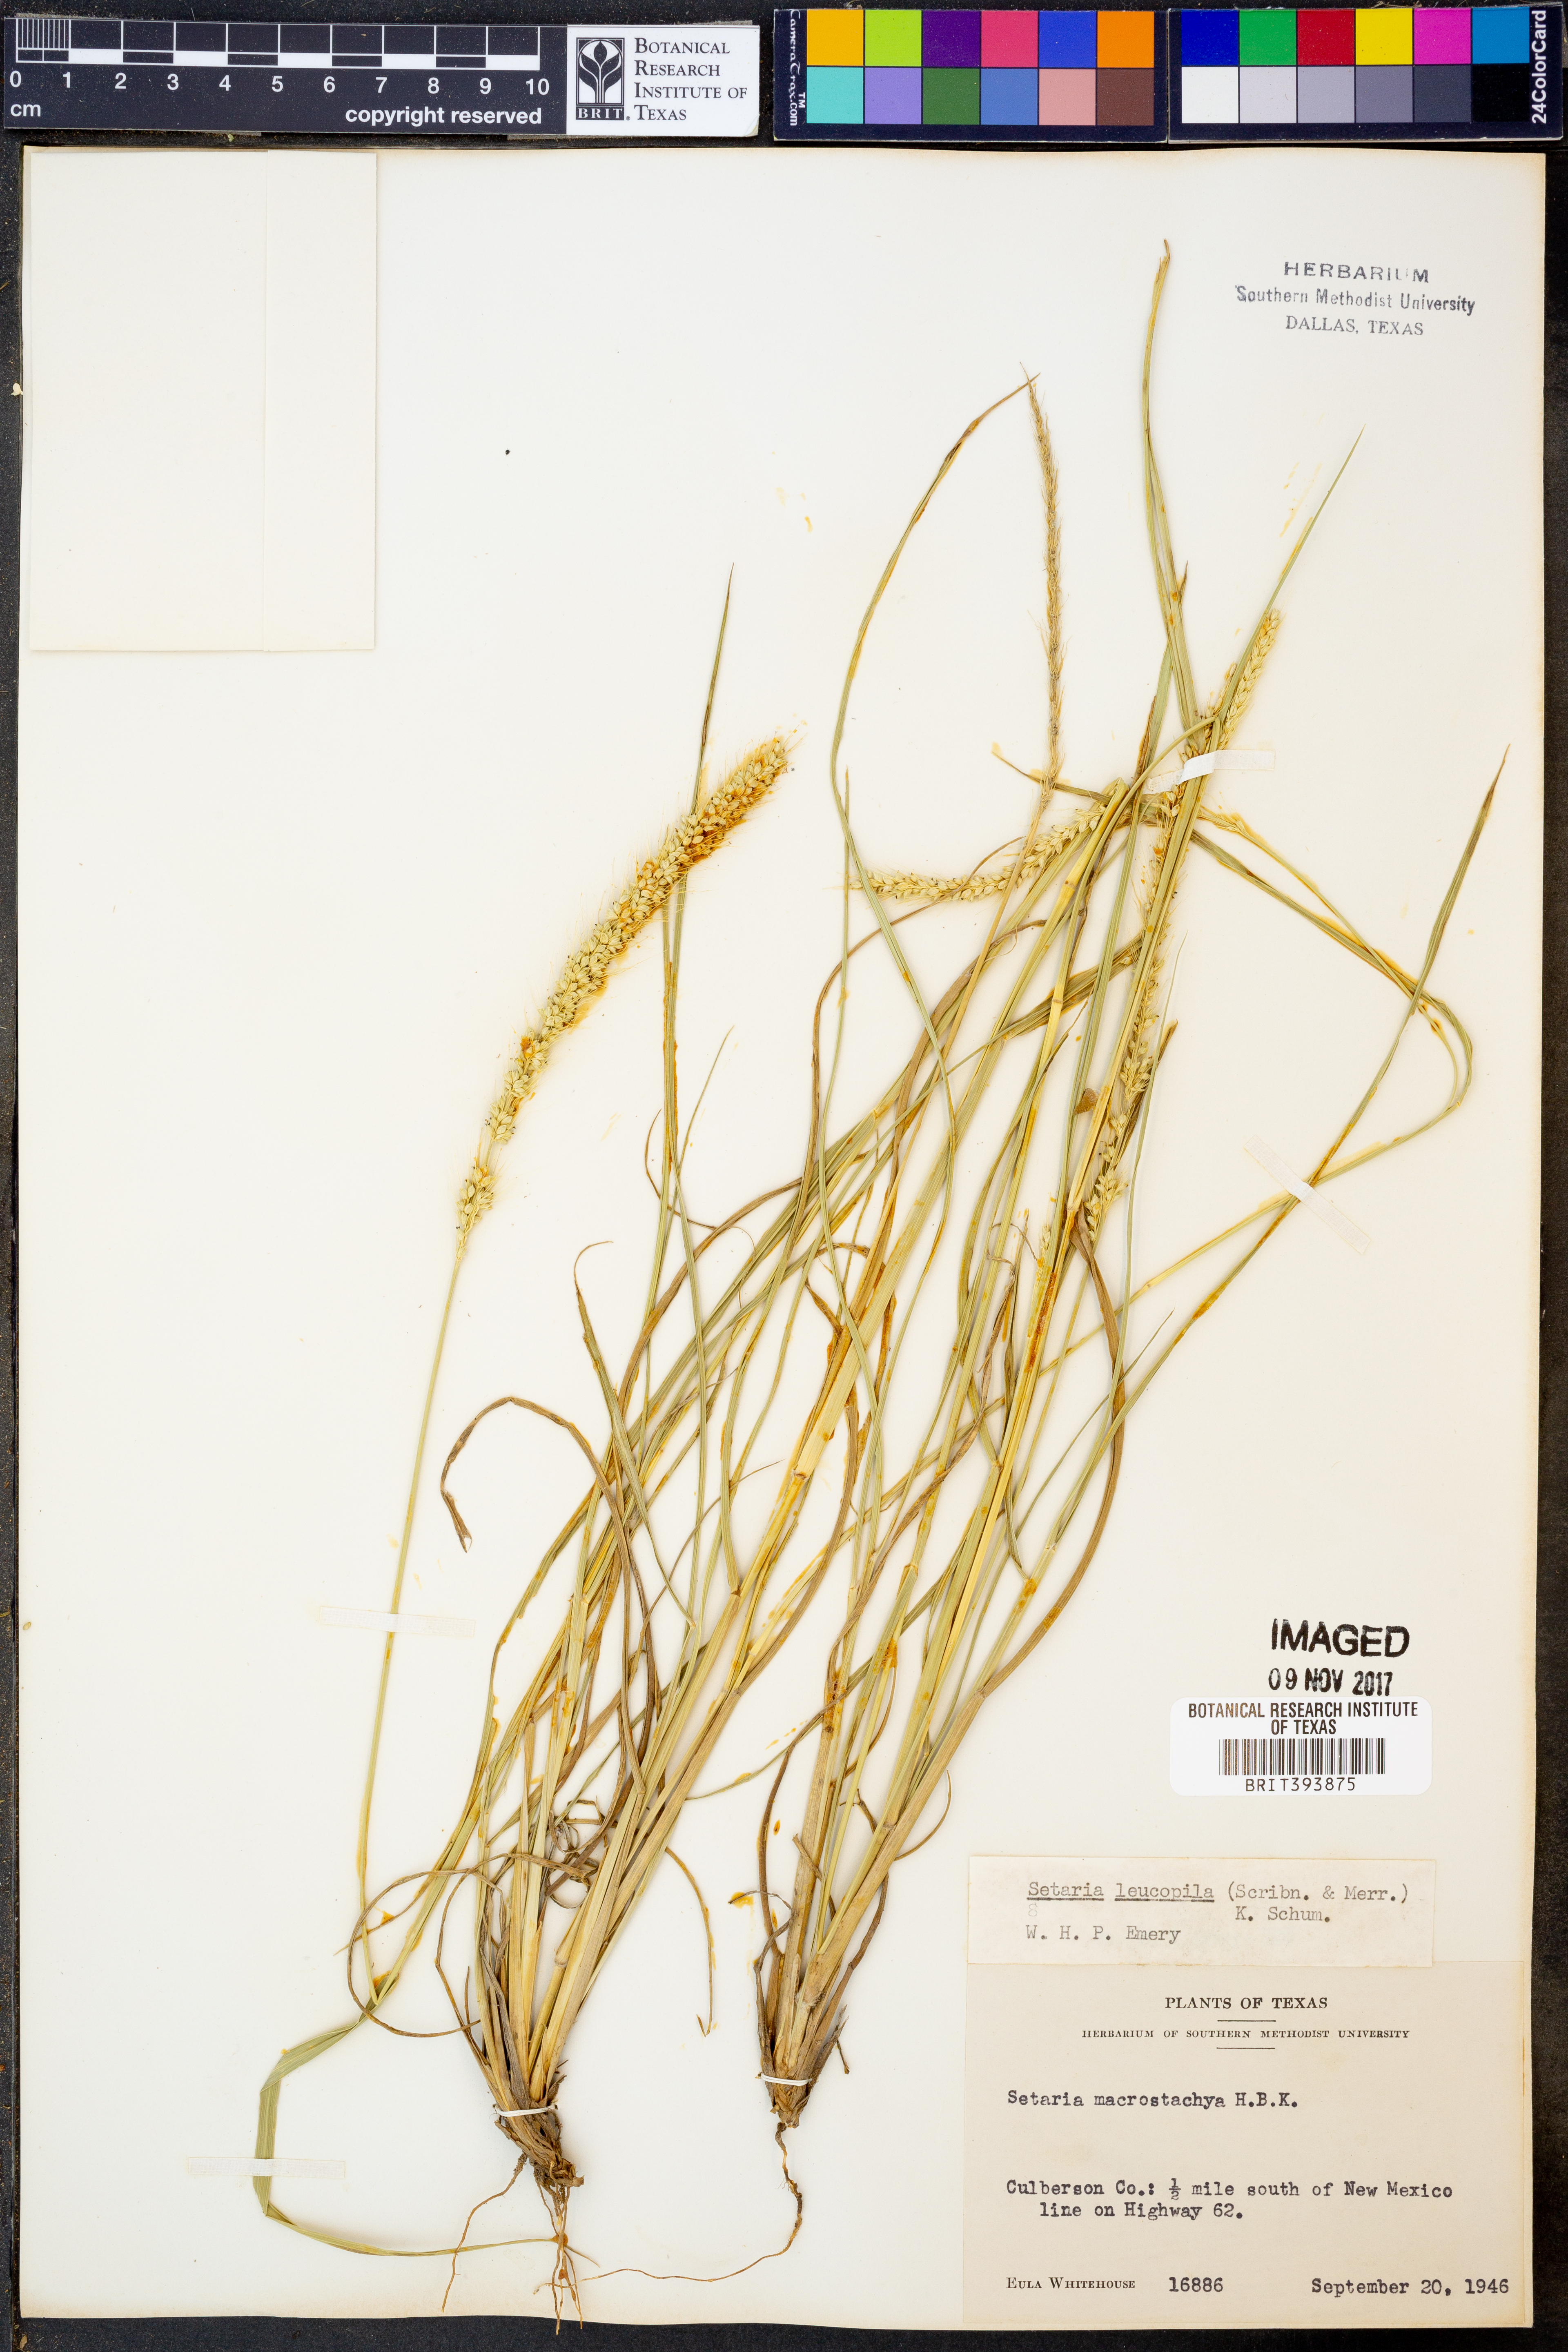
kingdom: Plantae
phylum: Tracheophyta
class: Liliopsida
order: Poales
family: Poaceae
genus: Setaria
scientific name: Setaria leucopila
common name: Plains bristle grass
